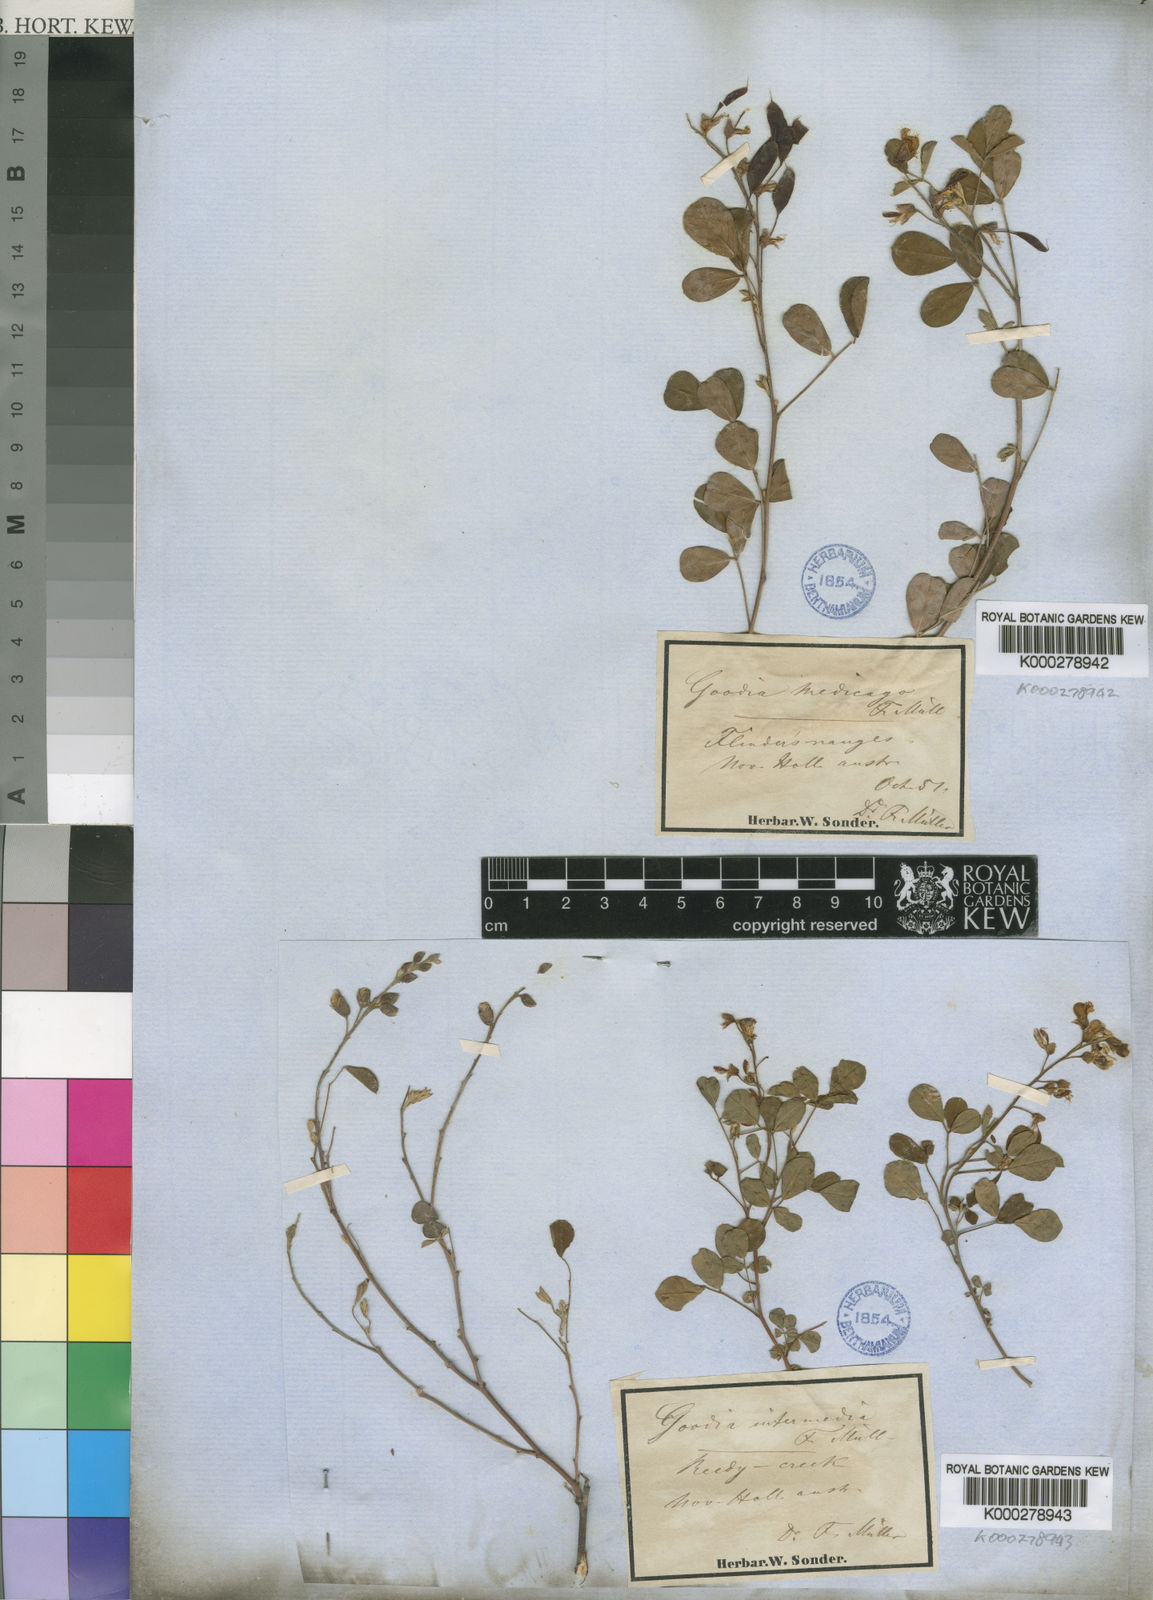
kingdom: Plantae
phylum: Tracheophyta
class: Magnoliopsida
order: Fabales
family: Fabaceae
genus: Goodia
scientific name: Goodia
